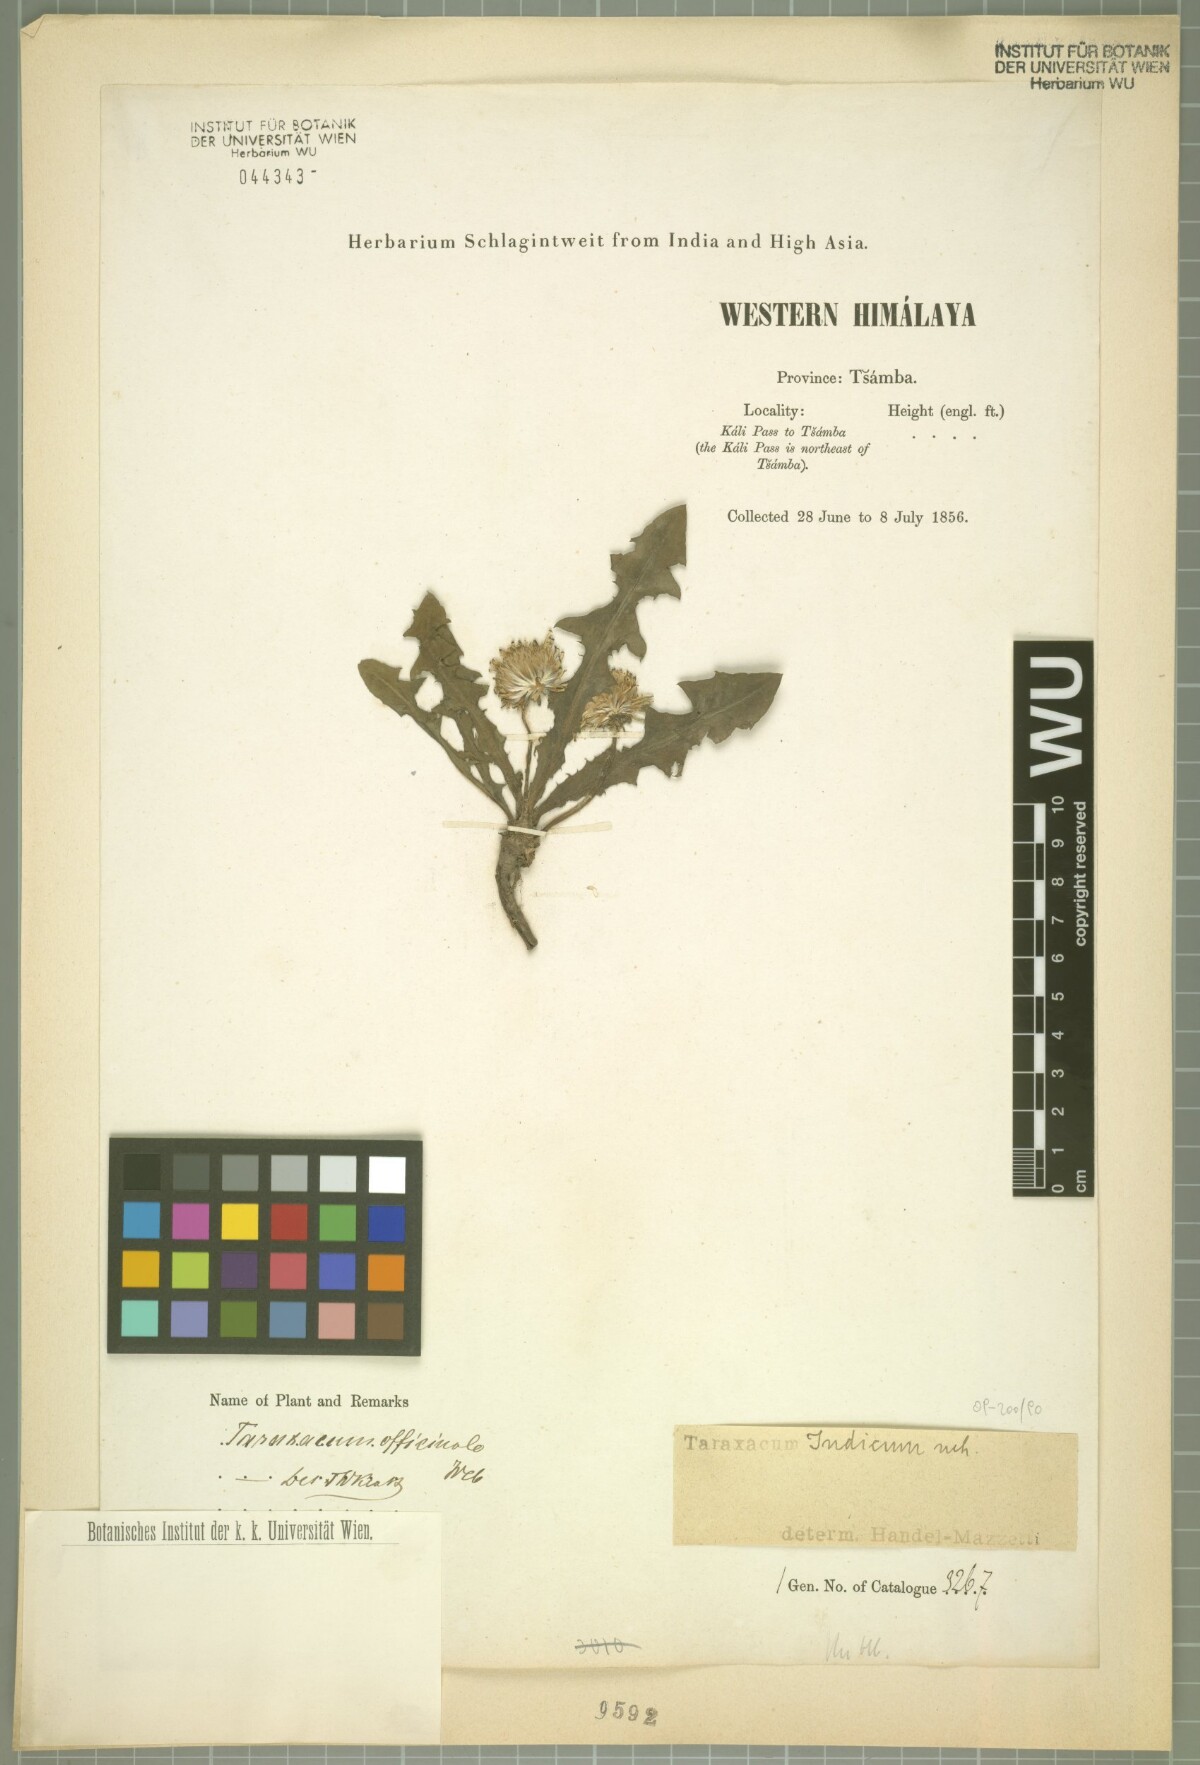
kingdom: Plantae
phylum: Tracheophyta
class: Magnoliopsida
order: Asterales
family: Asteraceae
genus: Taraxacum
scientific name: Taraxacum indicum
